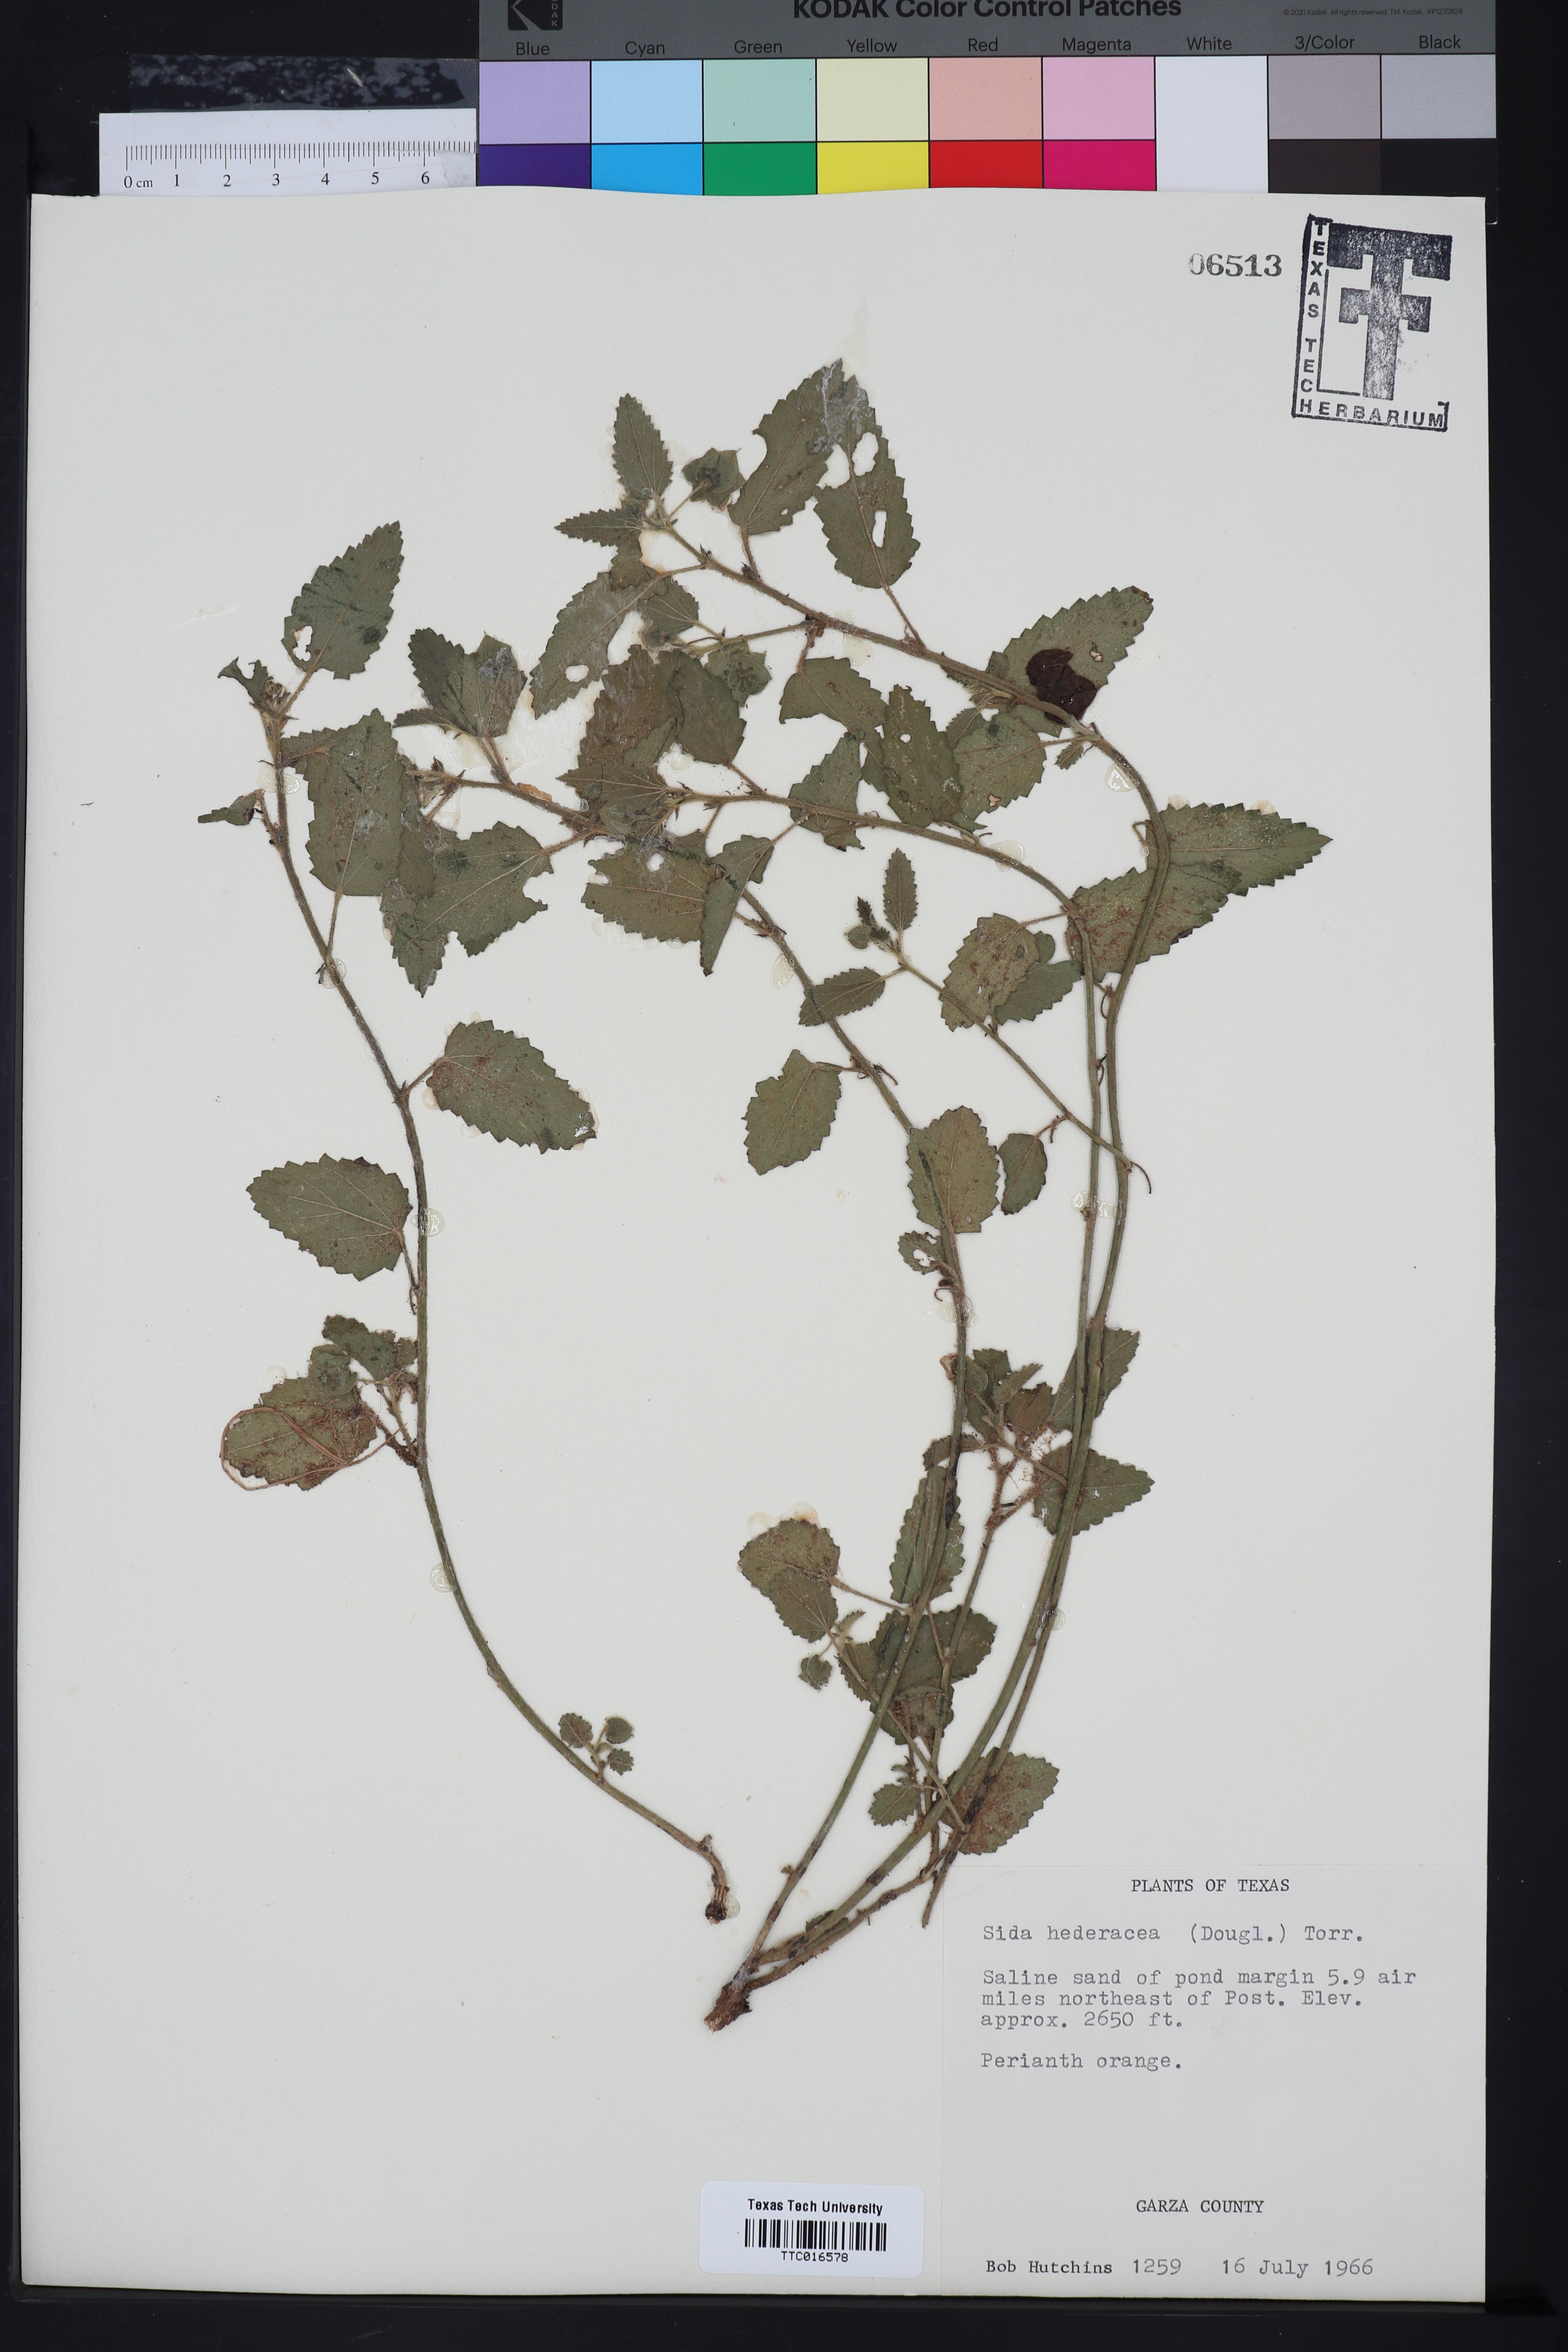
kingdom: Plantae
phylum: Tracheophyta
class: Magnoliopsida
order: Malvales
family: Malvaceae
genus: Malvella
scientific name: Malvella leprosa
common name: Alkali-mallow
